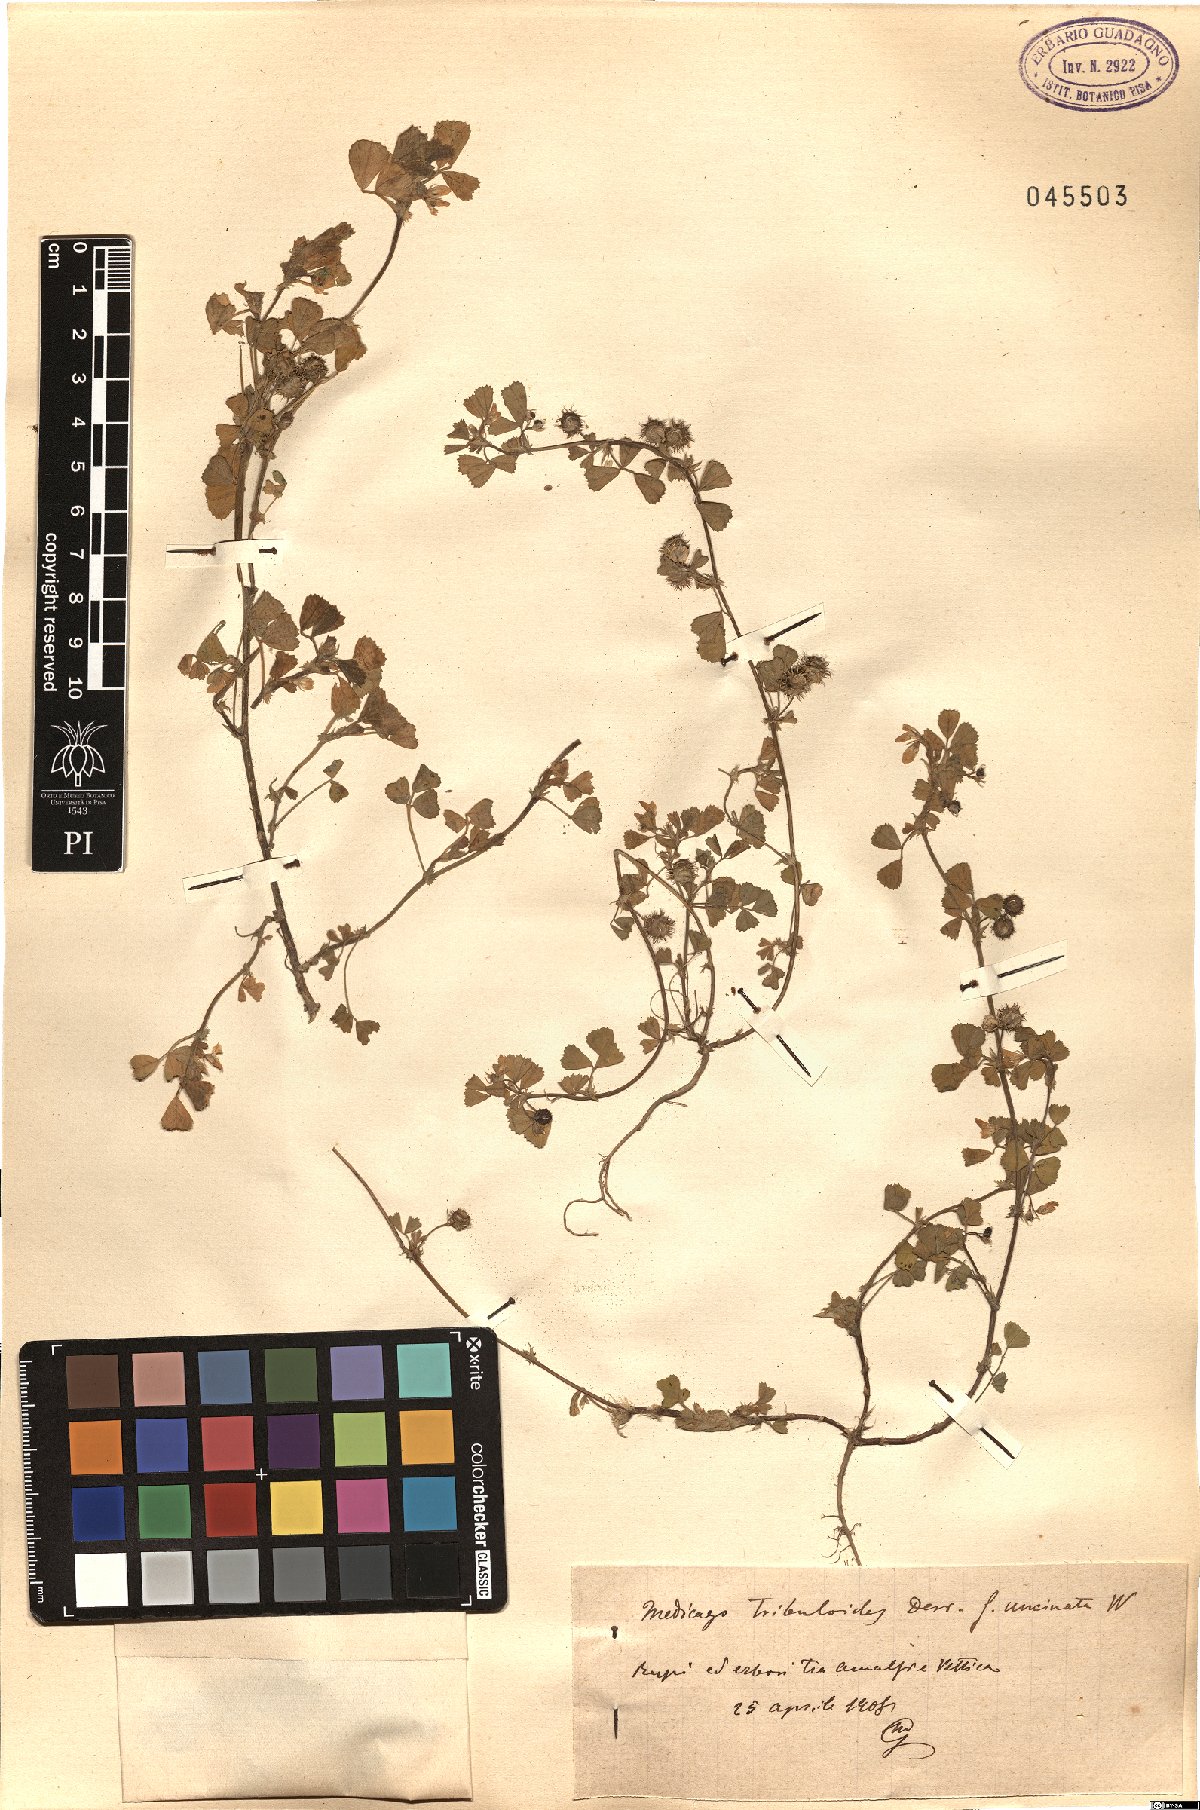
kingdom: Plantae
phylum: Tracheophyta
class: Magnoliopsida
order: Fabales
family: Fabaceae
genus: Medicago
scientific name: Medicago truncatula
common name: Strong-spined medick
